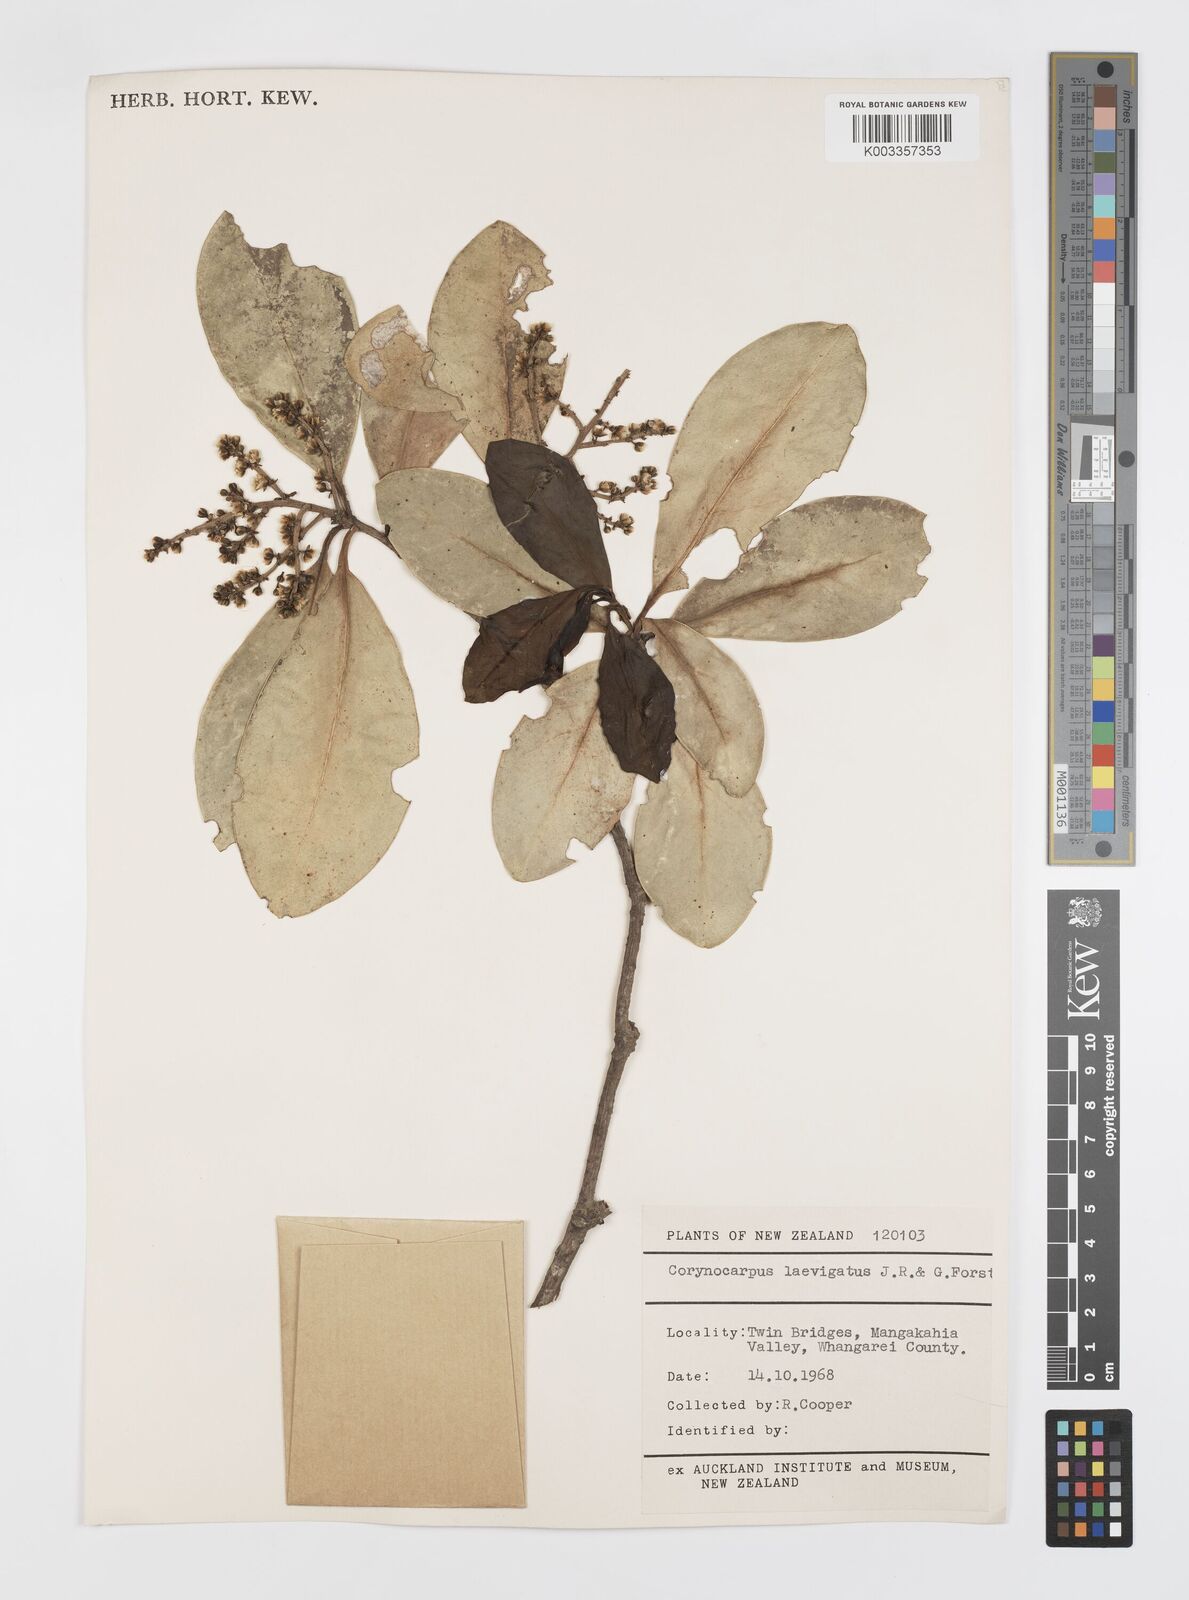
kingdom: Plantae
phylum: Tracheophyta
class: Magnoliopsida
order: Cucurbitales
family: Corynocarpaceae
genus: Corynocarpus
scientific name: Corynocarpus laevigatus
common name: New zealand laurel
